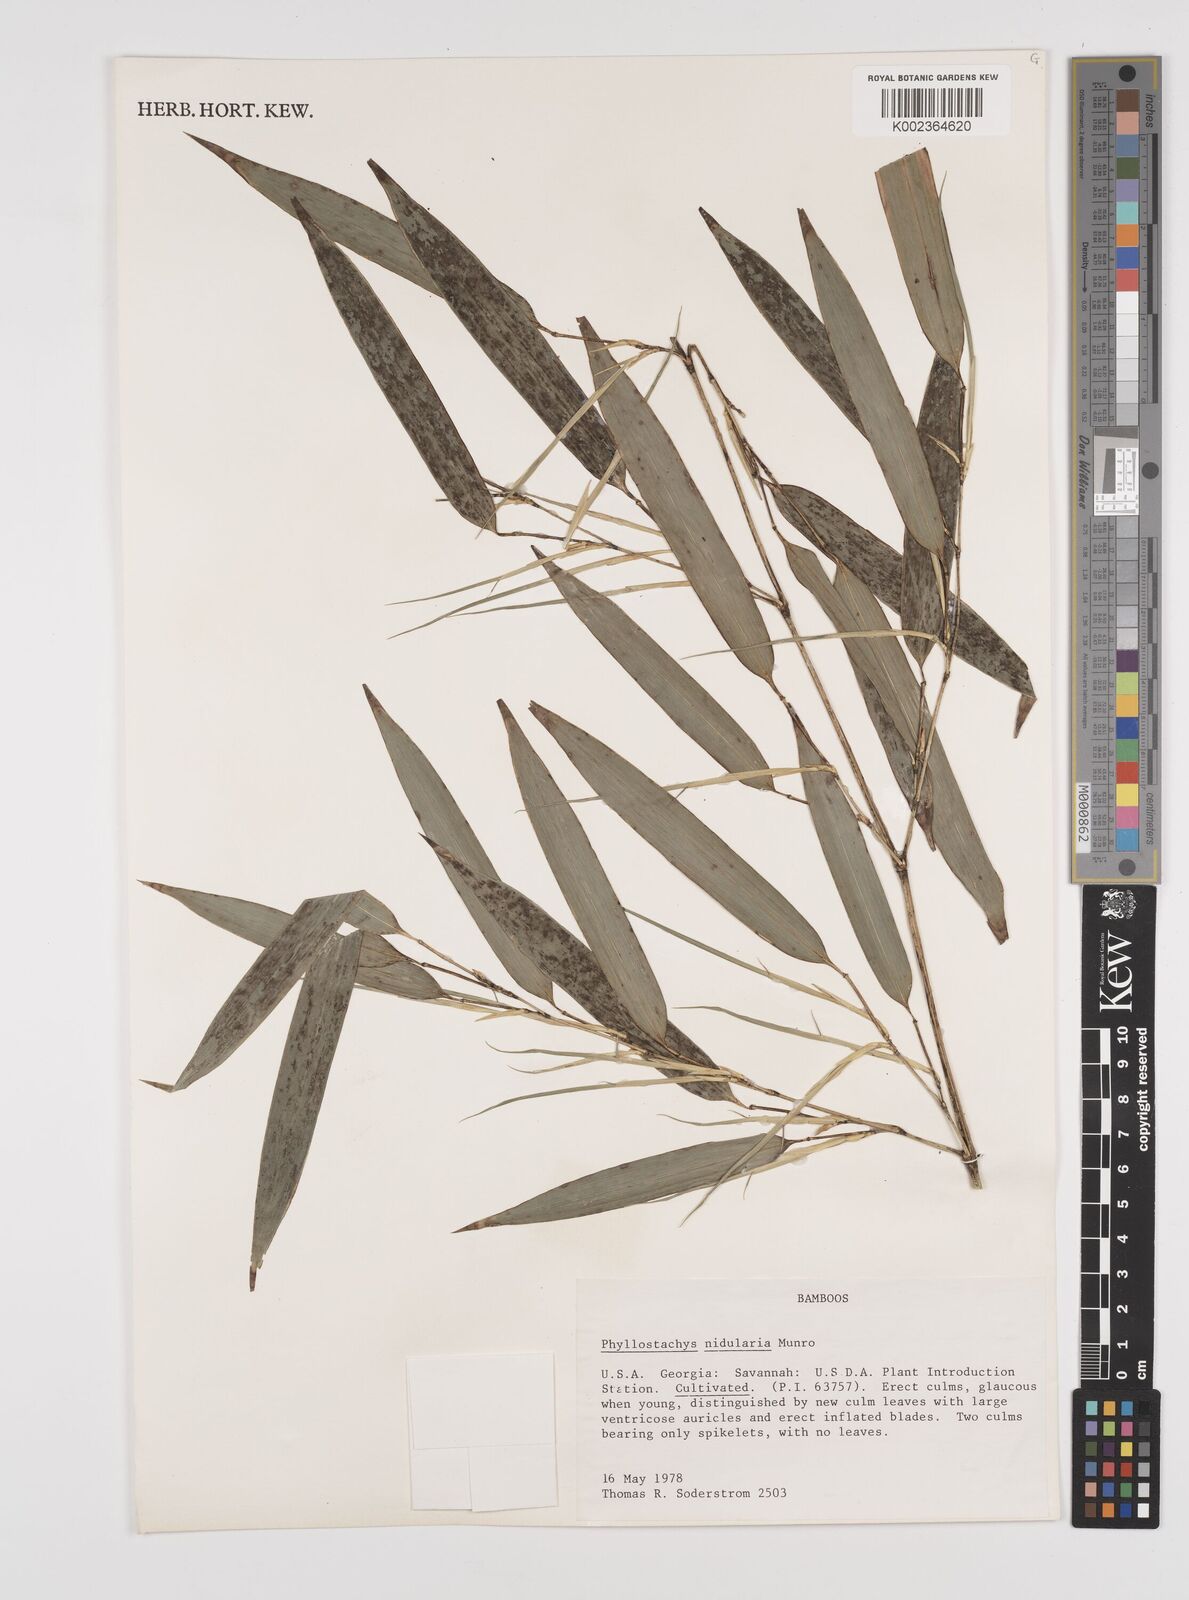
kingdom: Plantae
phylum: Tracheophyta
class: Liliopsida
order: Poales
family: Poaceae
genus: Phyllostachys
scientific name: Phyllostachys nidularia
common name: Broom bamboo
